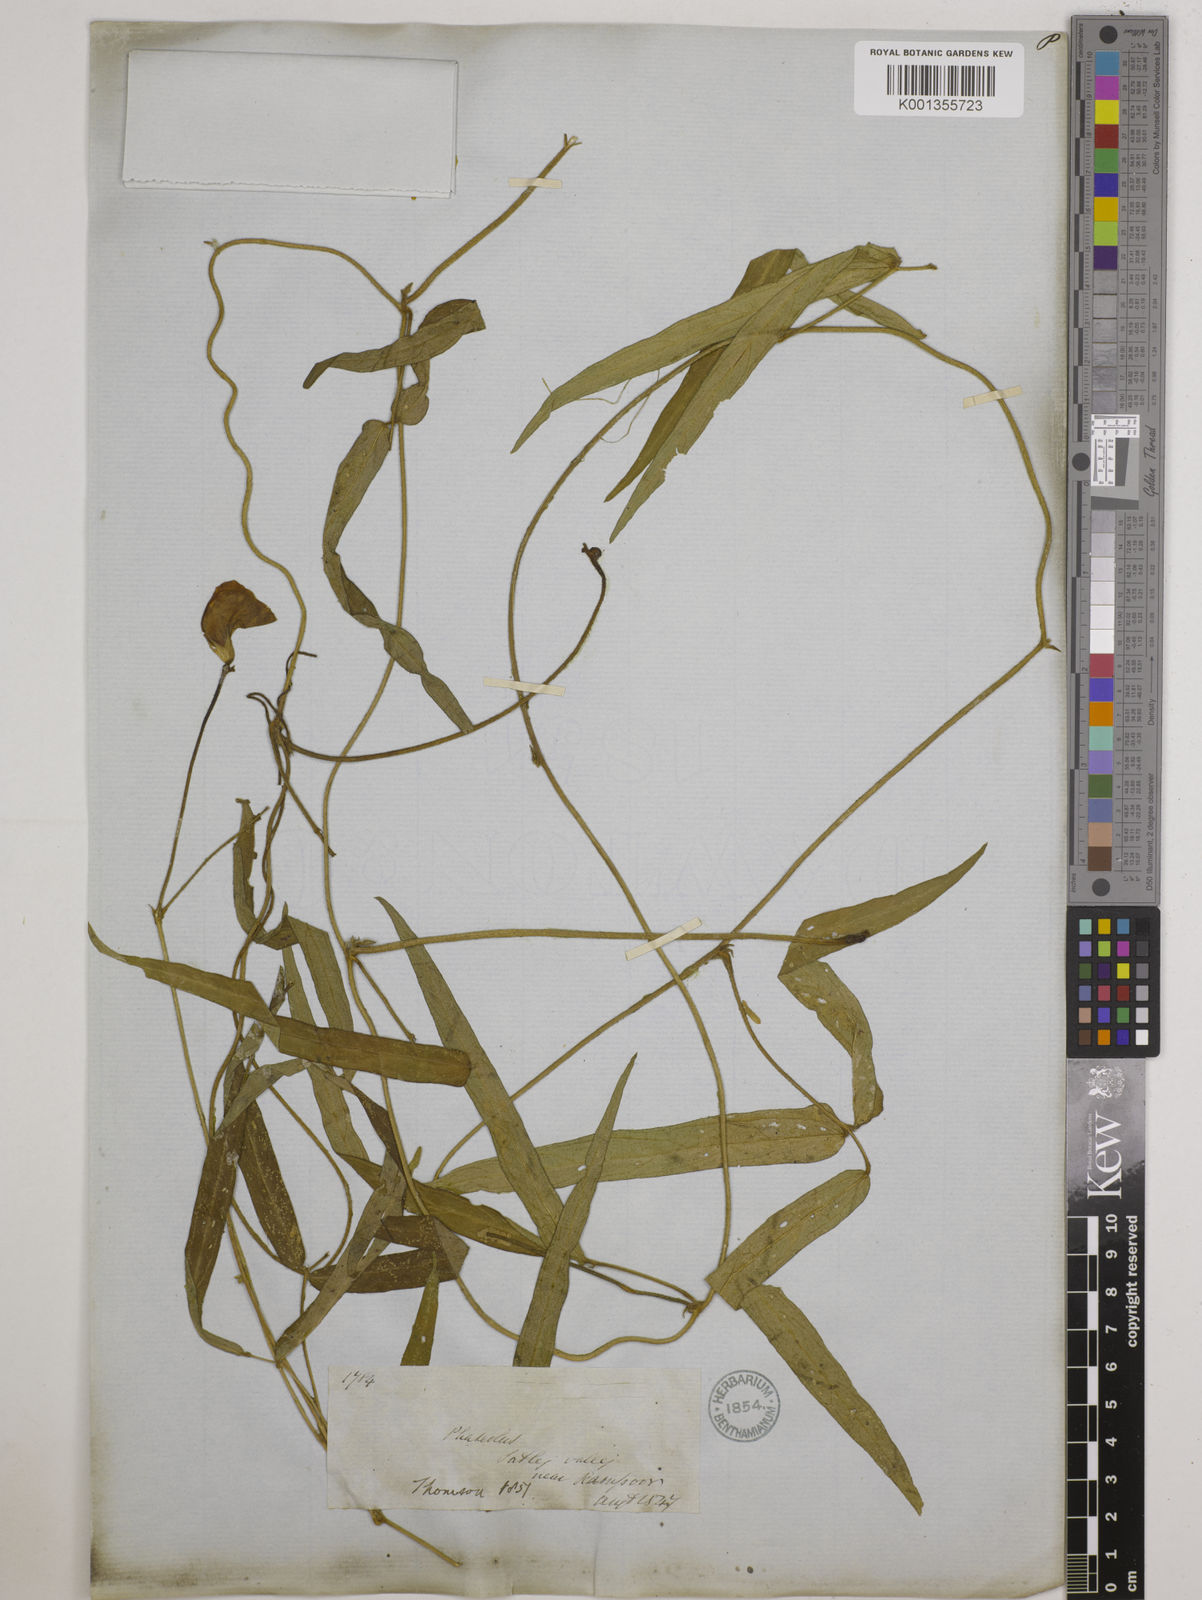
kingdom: Plantae
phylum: Tracheophyta
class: Magnoliopsida
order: Fabales
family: Fabaceae
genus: Vigna
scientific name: Vigna vexillata
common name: Zombi pea
